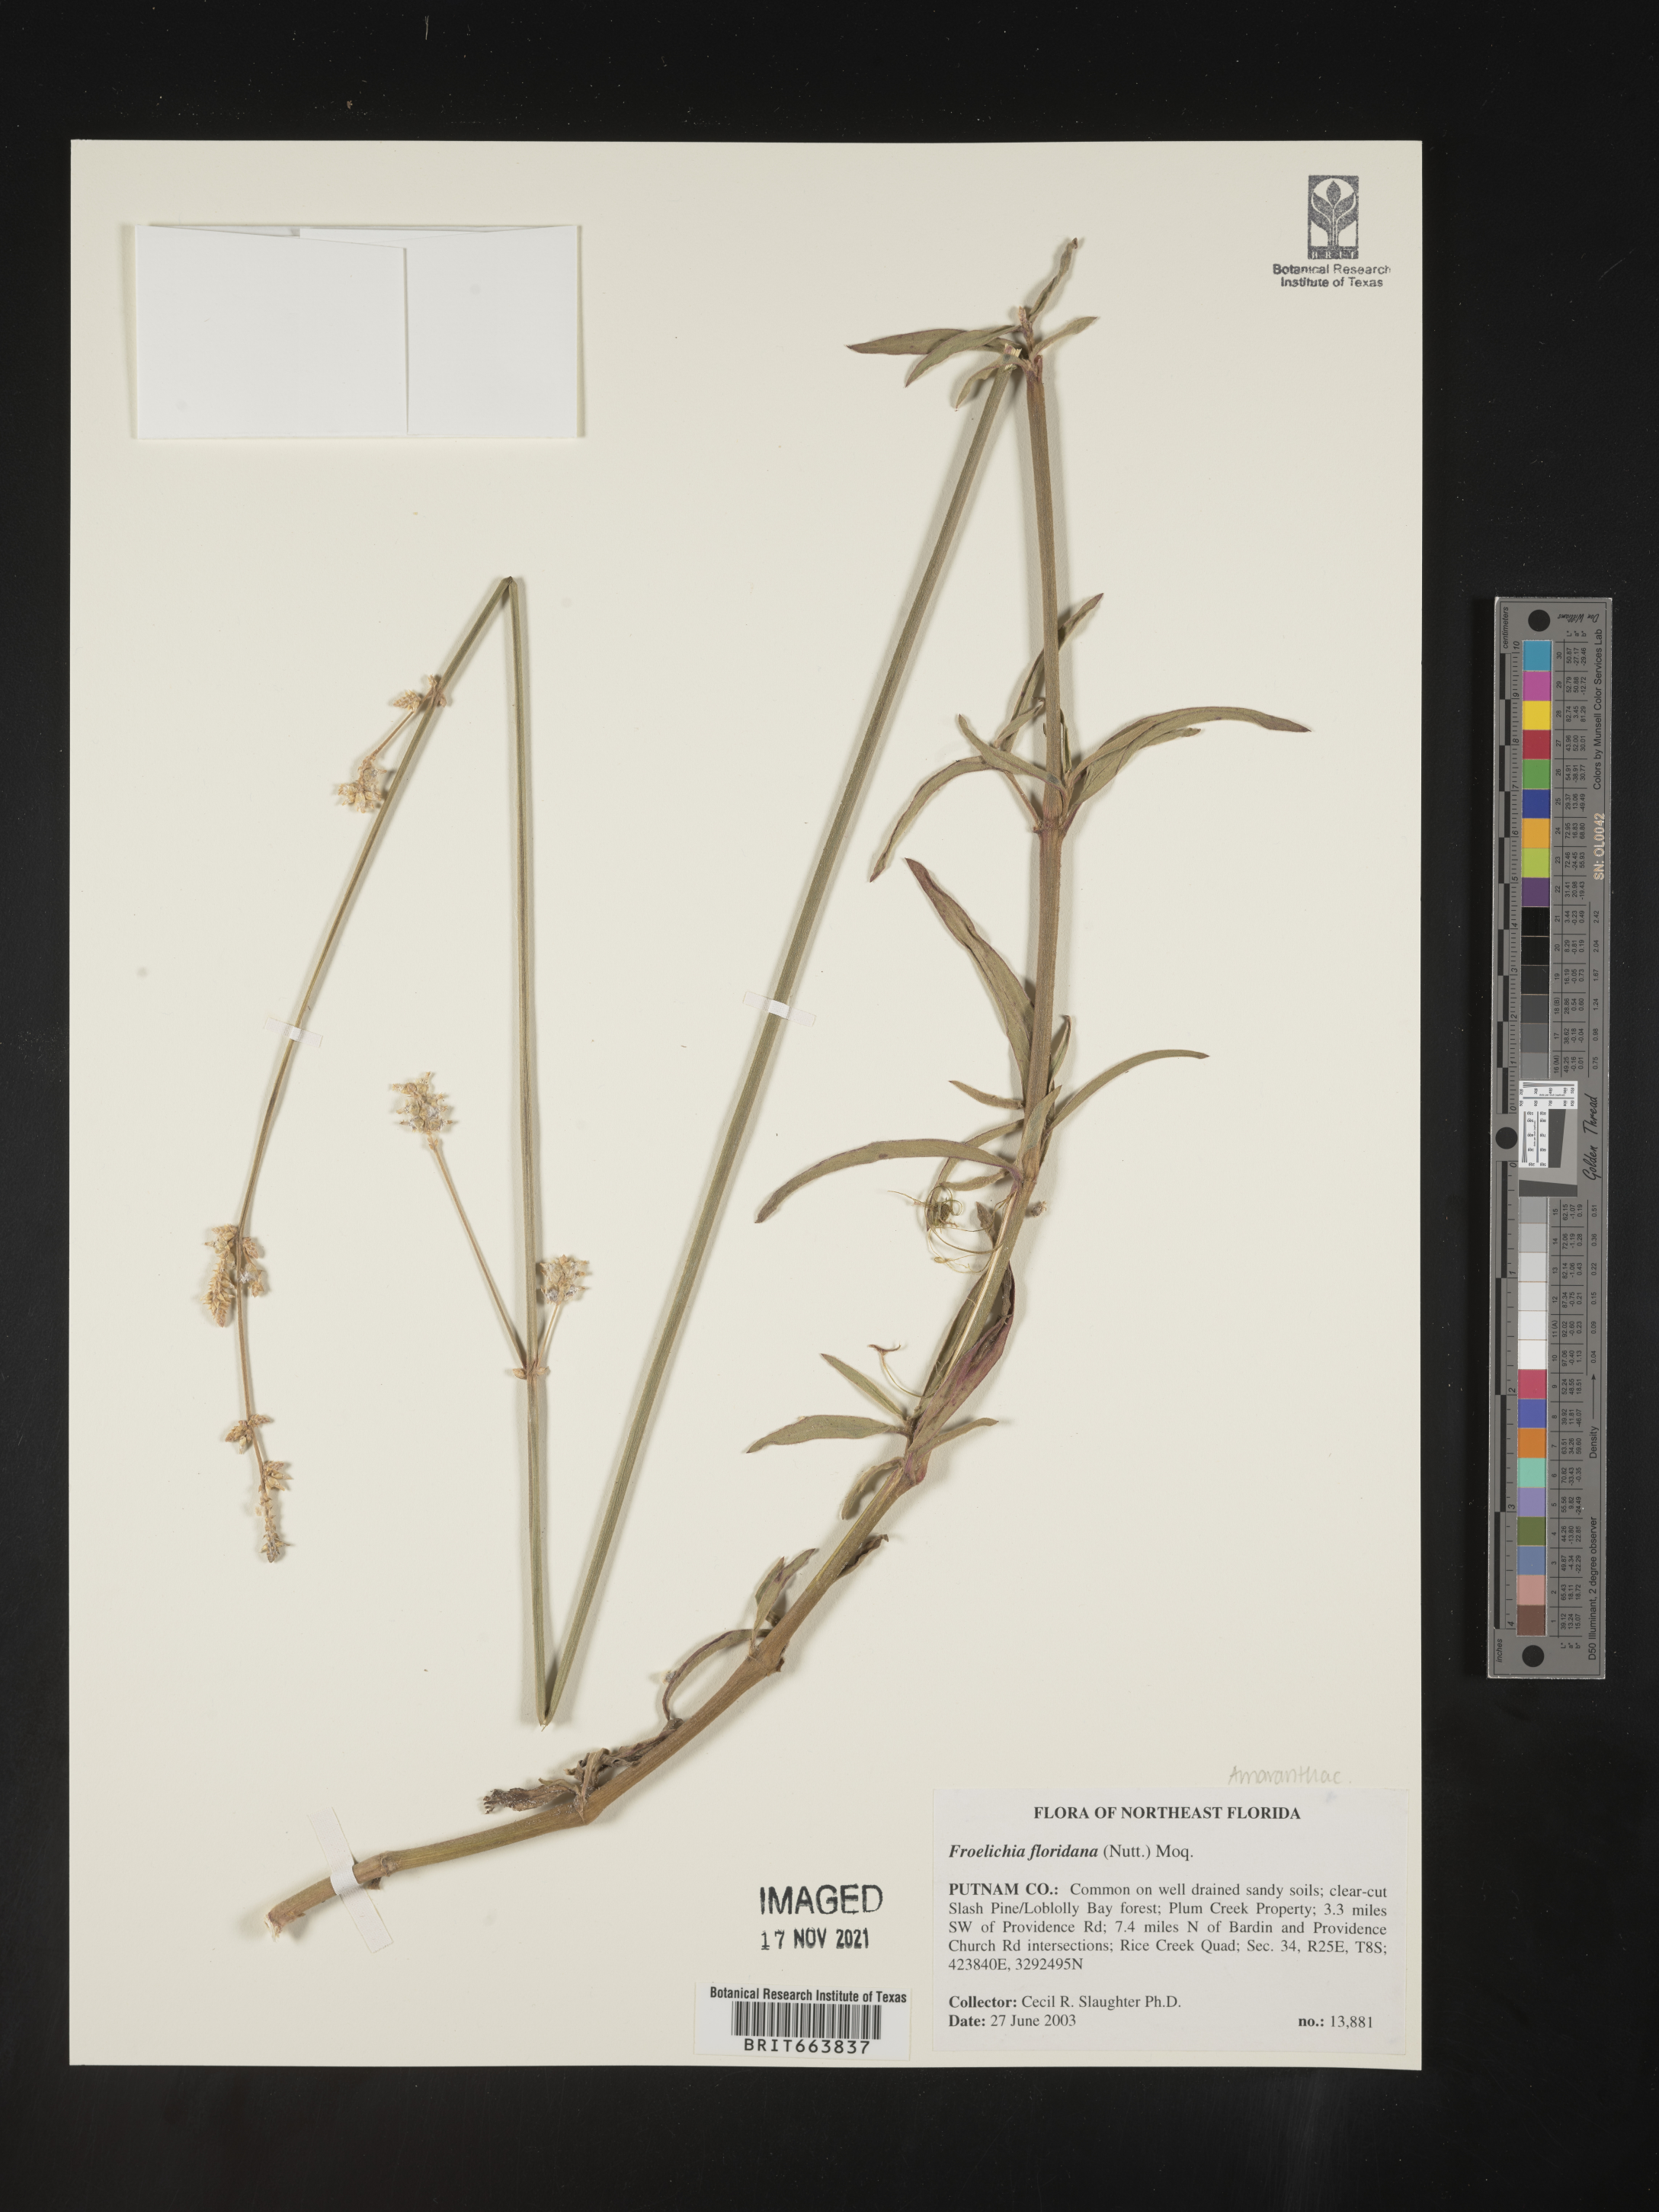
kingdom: Plantae
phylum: Tracheophyta
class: Magnoliopsida
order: Caryophyllales
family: Amaranthaceae
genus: Froelichia
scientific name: Froelichia floridana
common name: Florida snake-cotton
